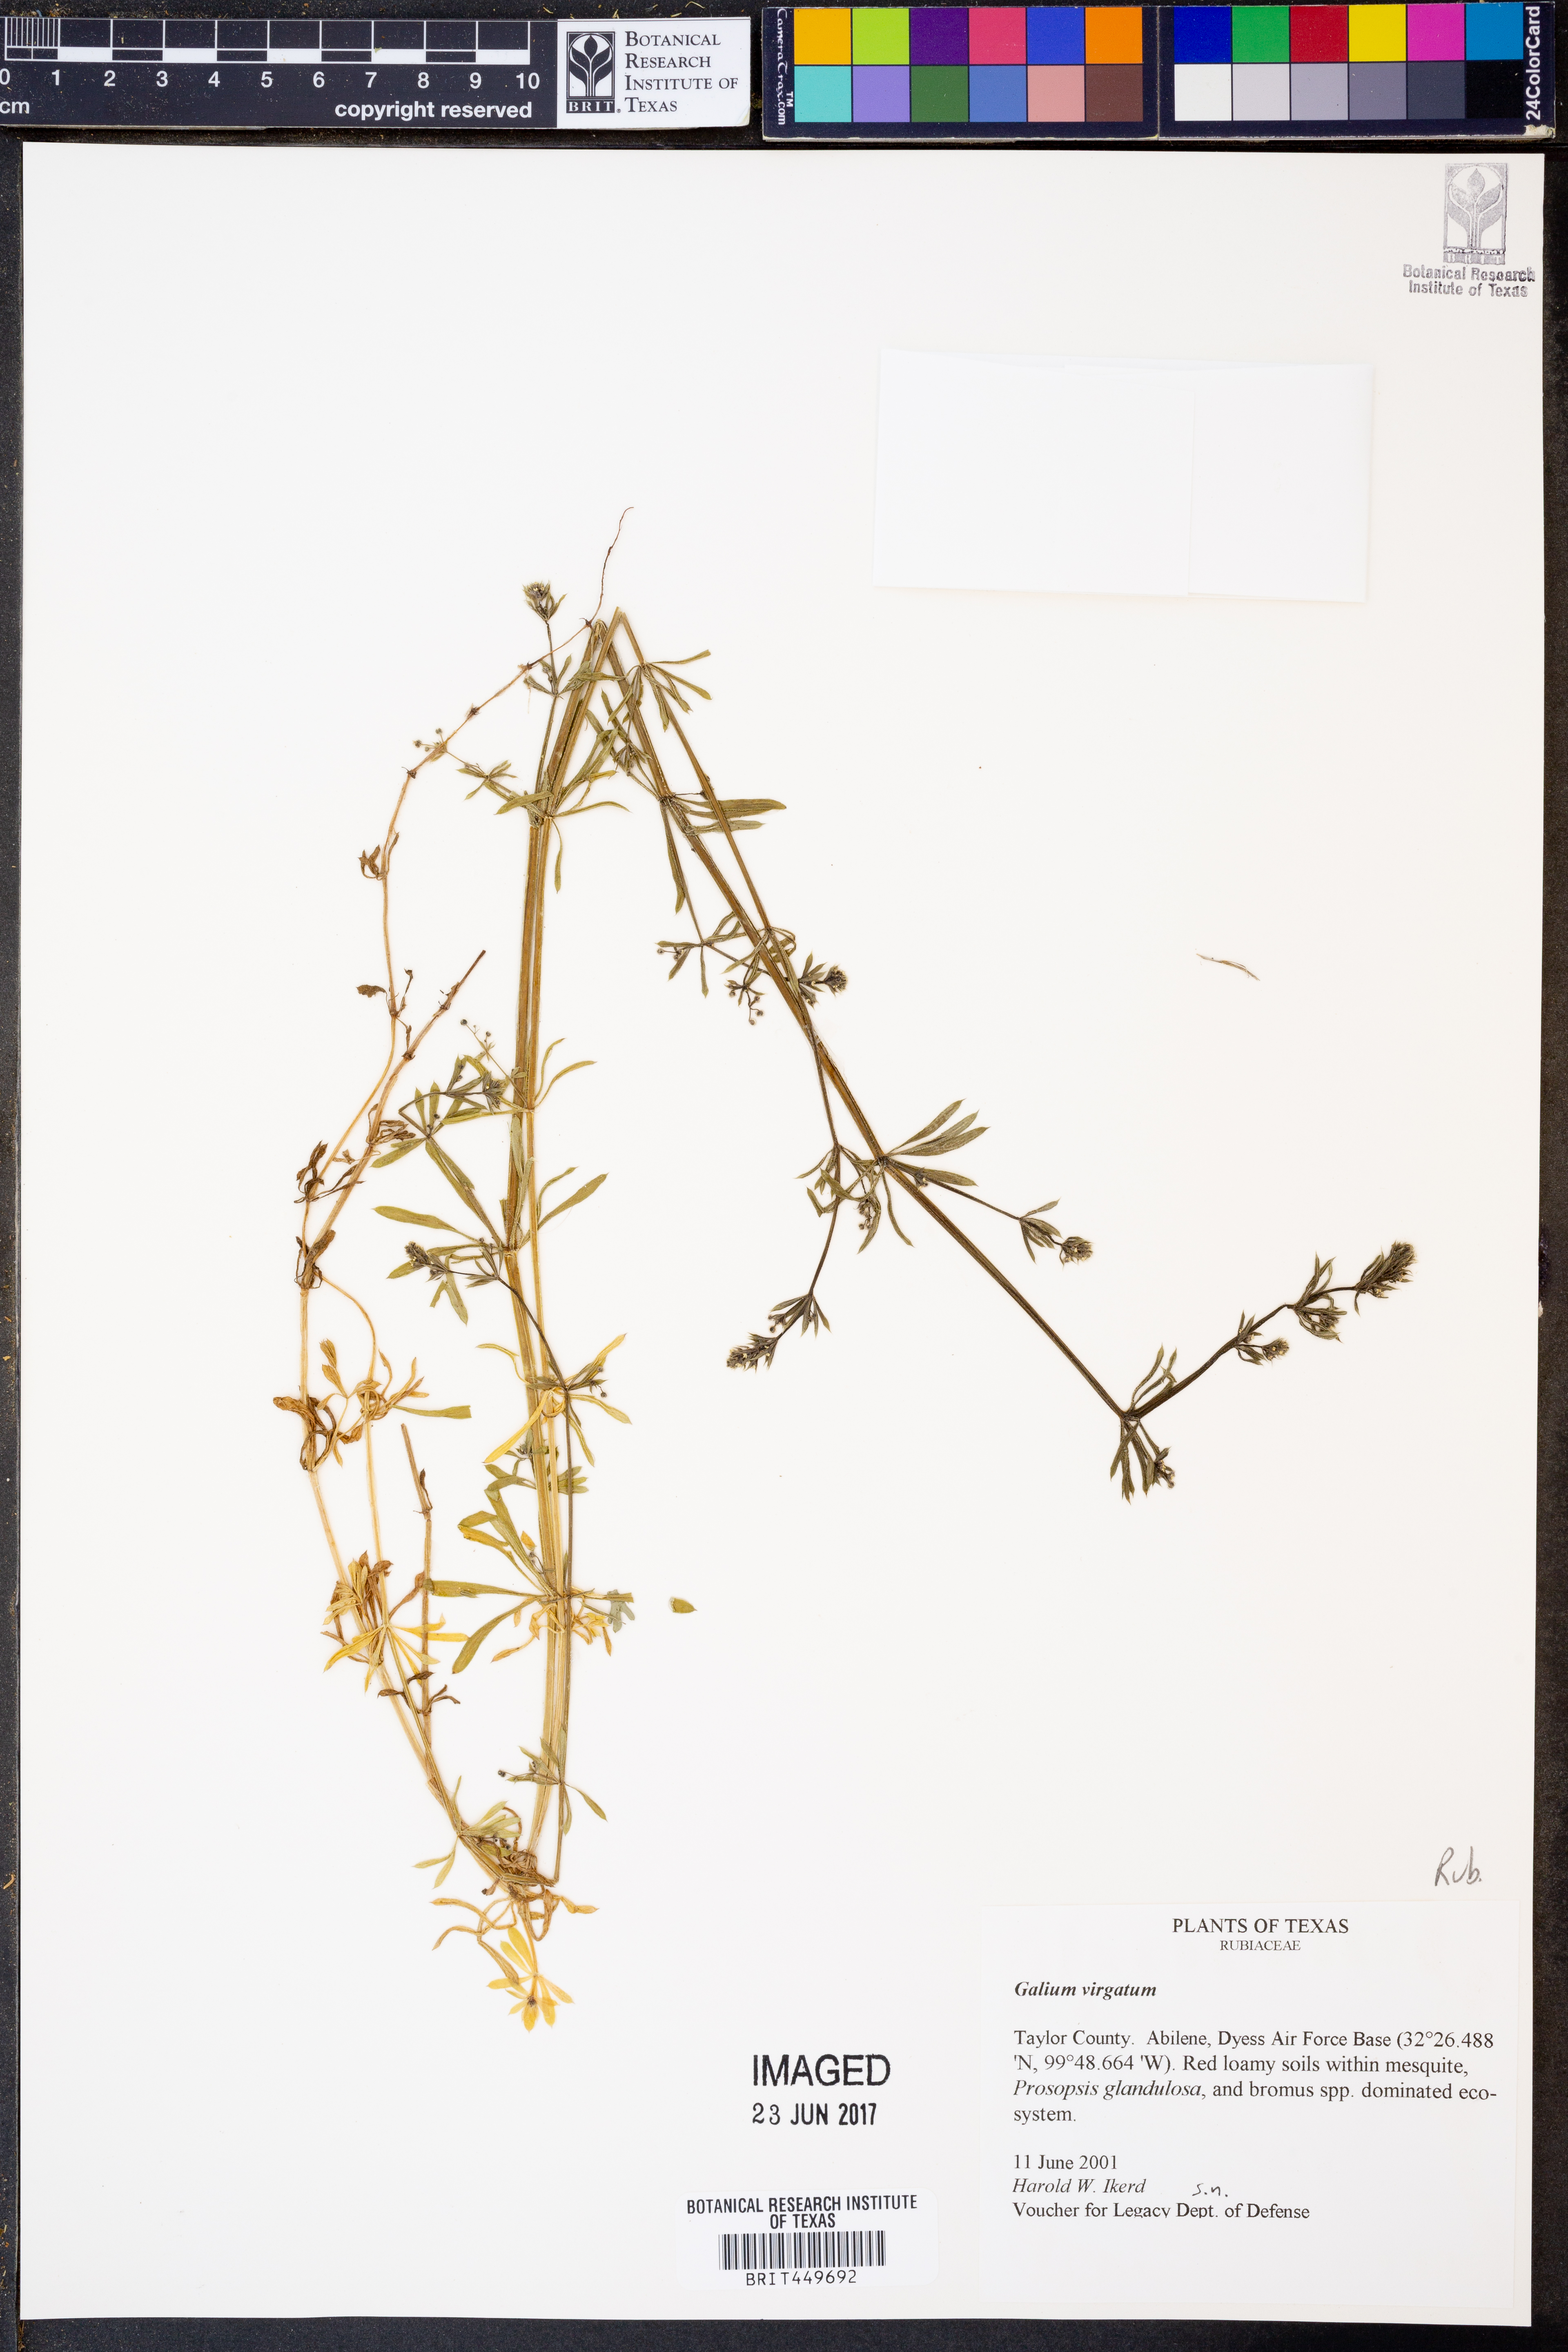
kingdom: Plantae
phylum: Tracheophyta
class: Magnoliopsida
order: Gentianales
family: Rubiaceae
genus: Galium
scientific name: Galium virgatum
